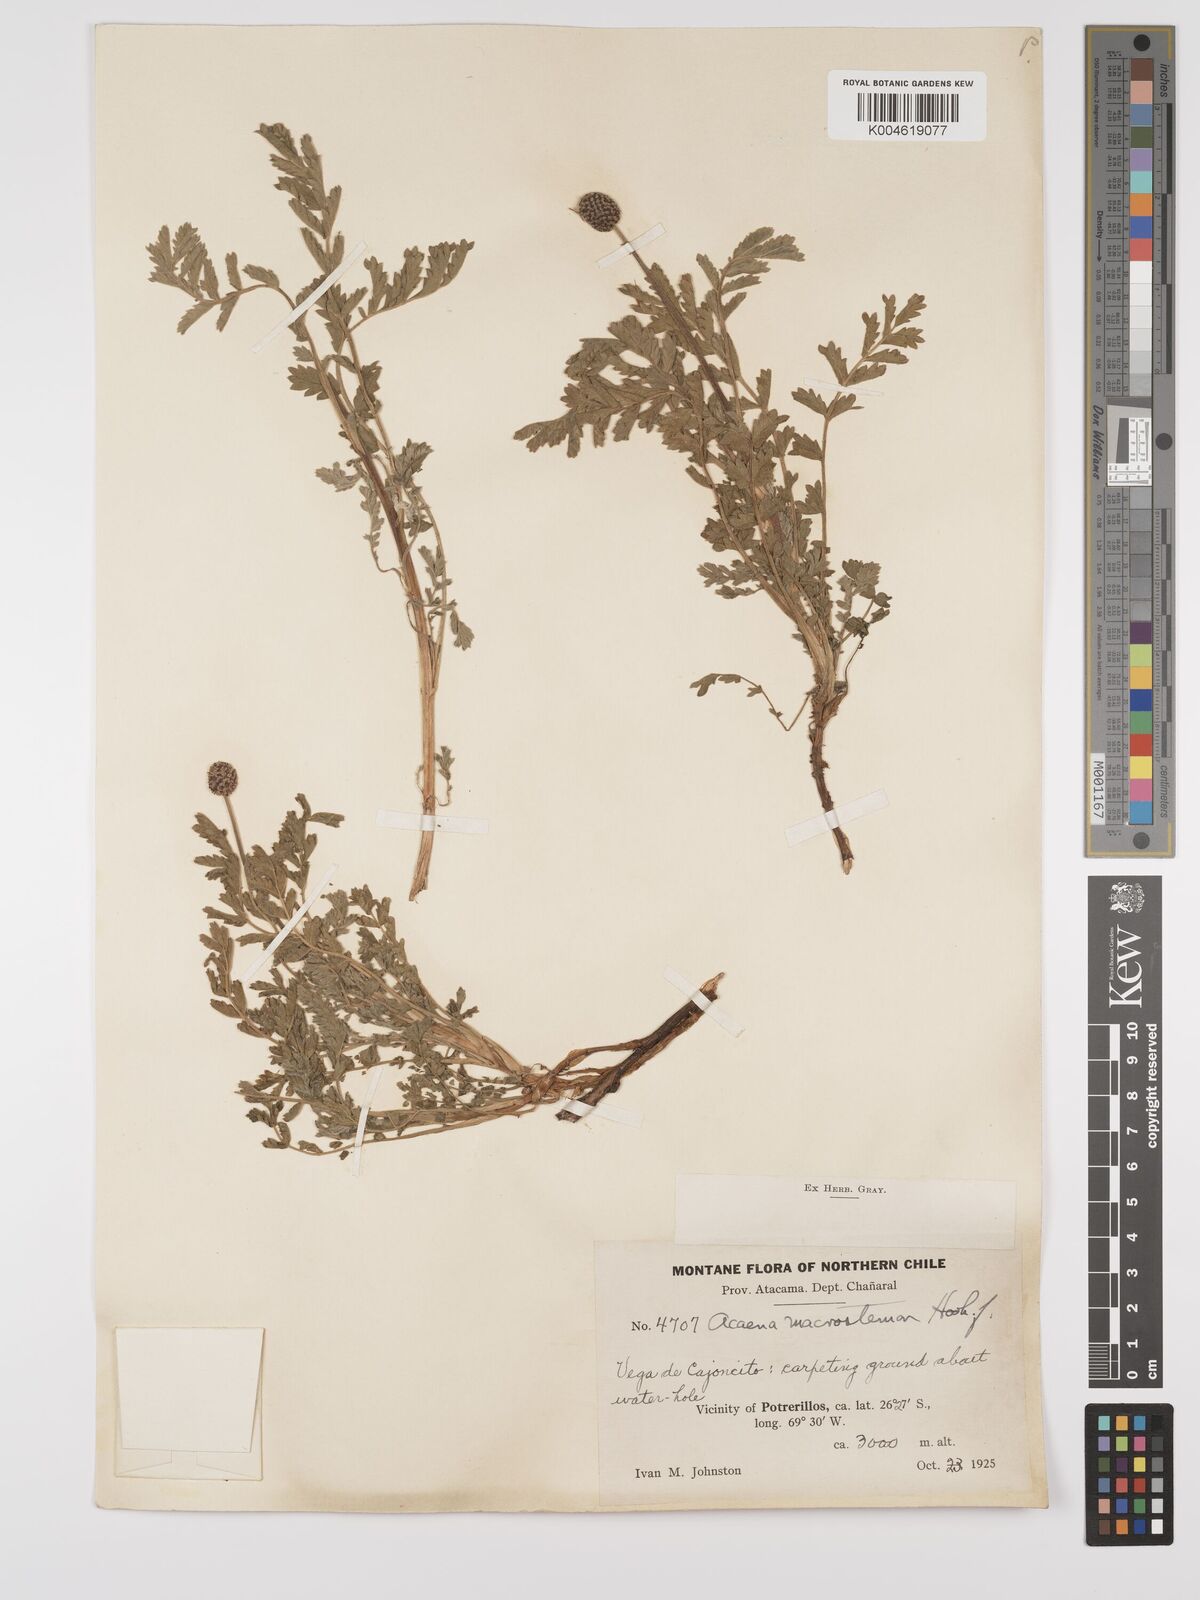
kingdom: Plantae
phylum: Tracheophyta
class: Magnoliopsida
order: Rosales
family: Rosaceae
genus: Acaena
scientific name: Acaena magellanica
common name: New zealand burr
